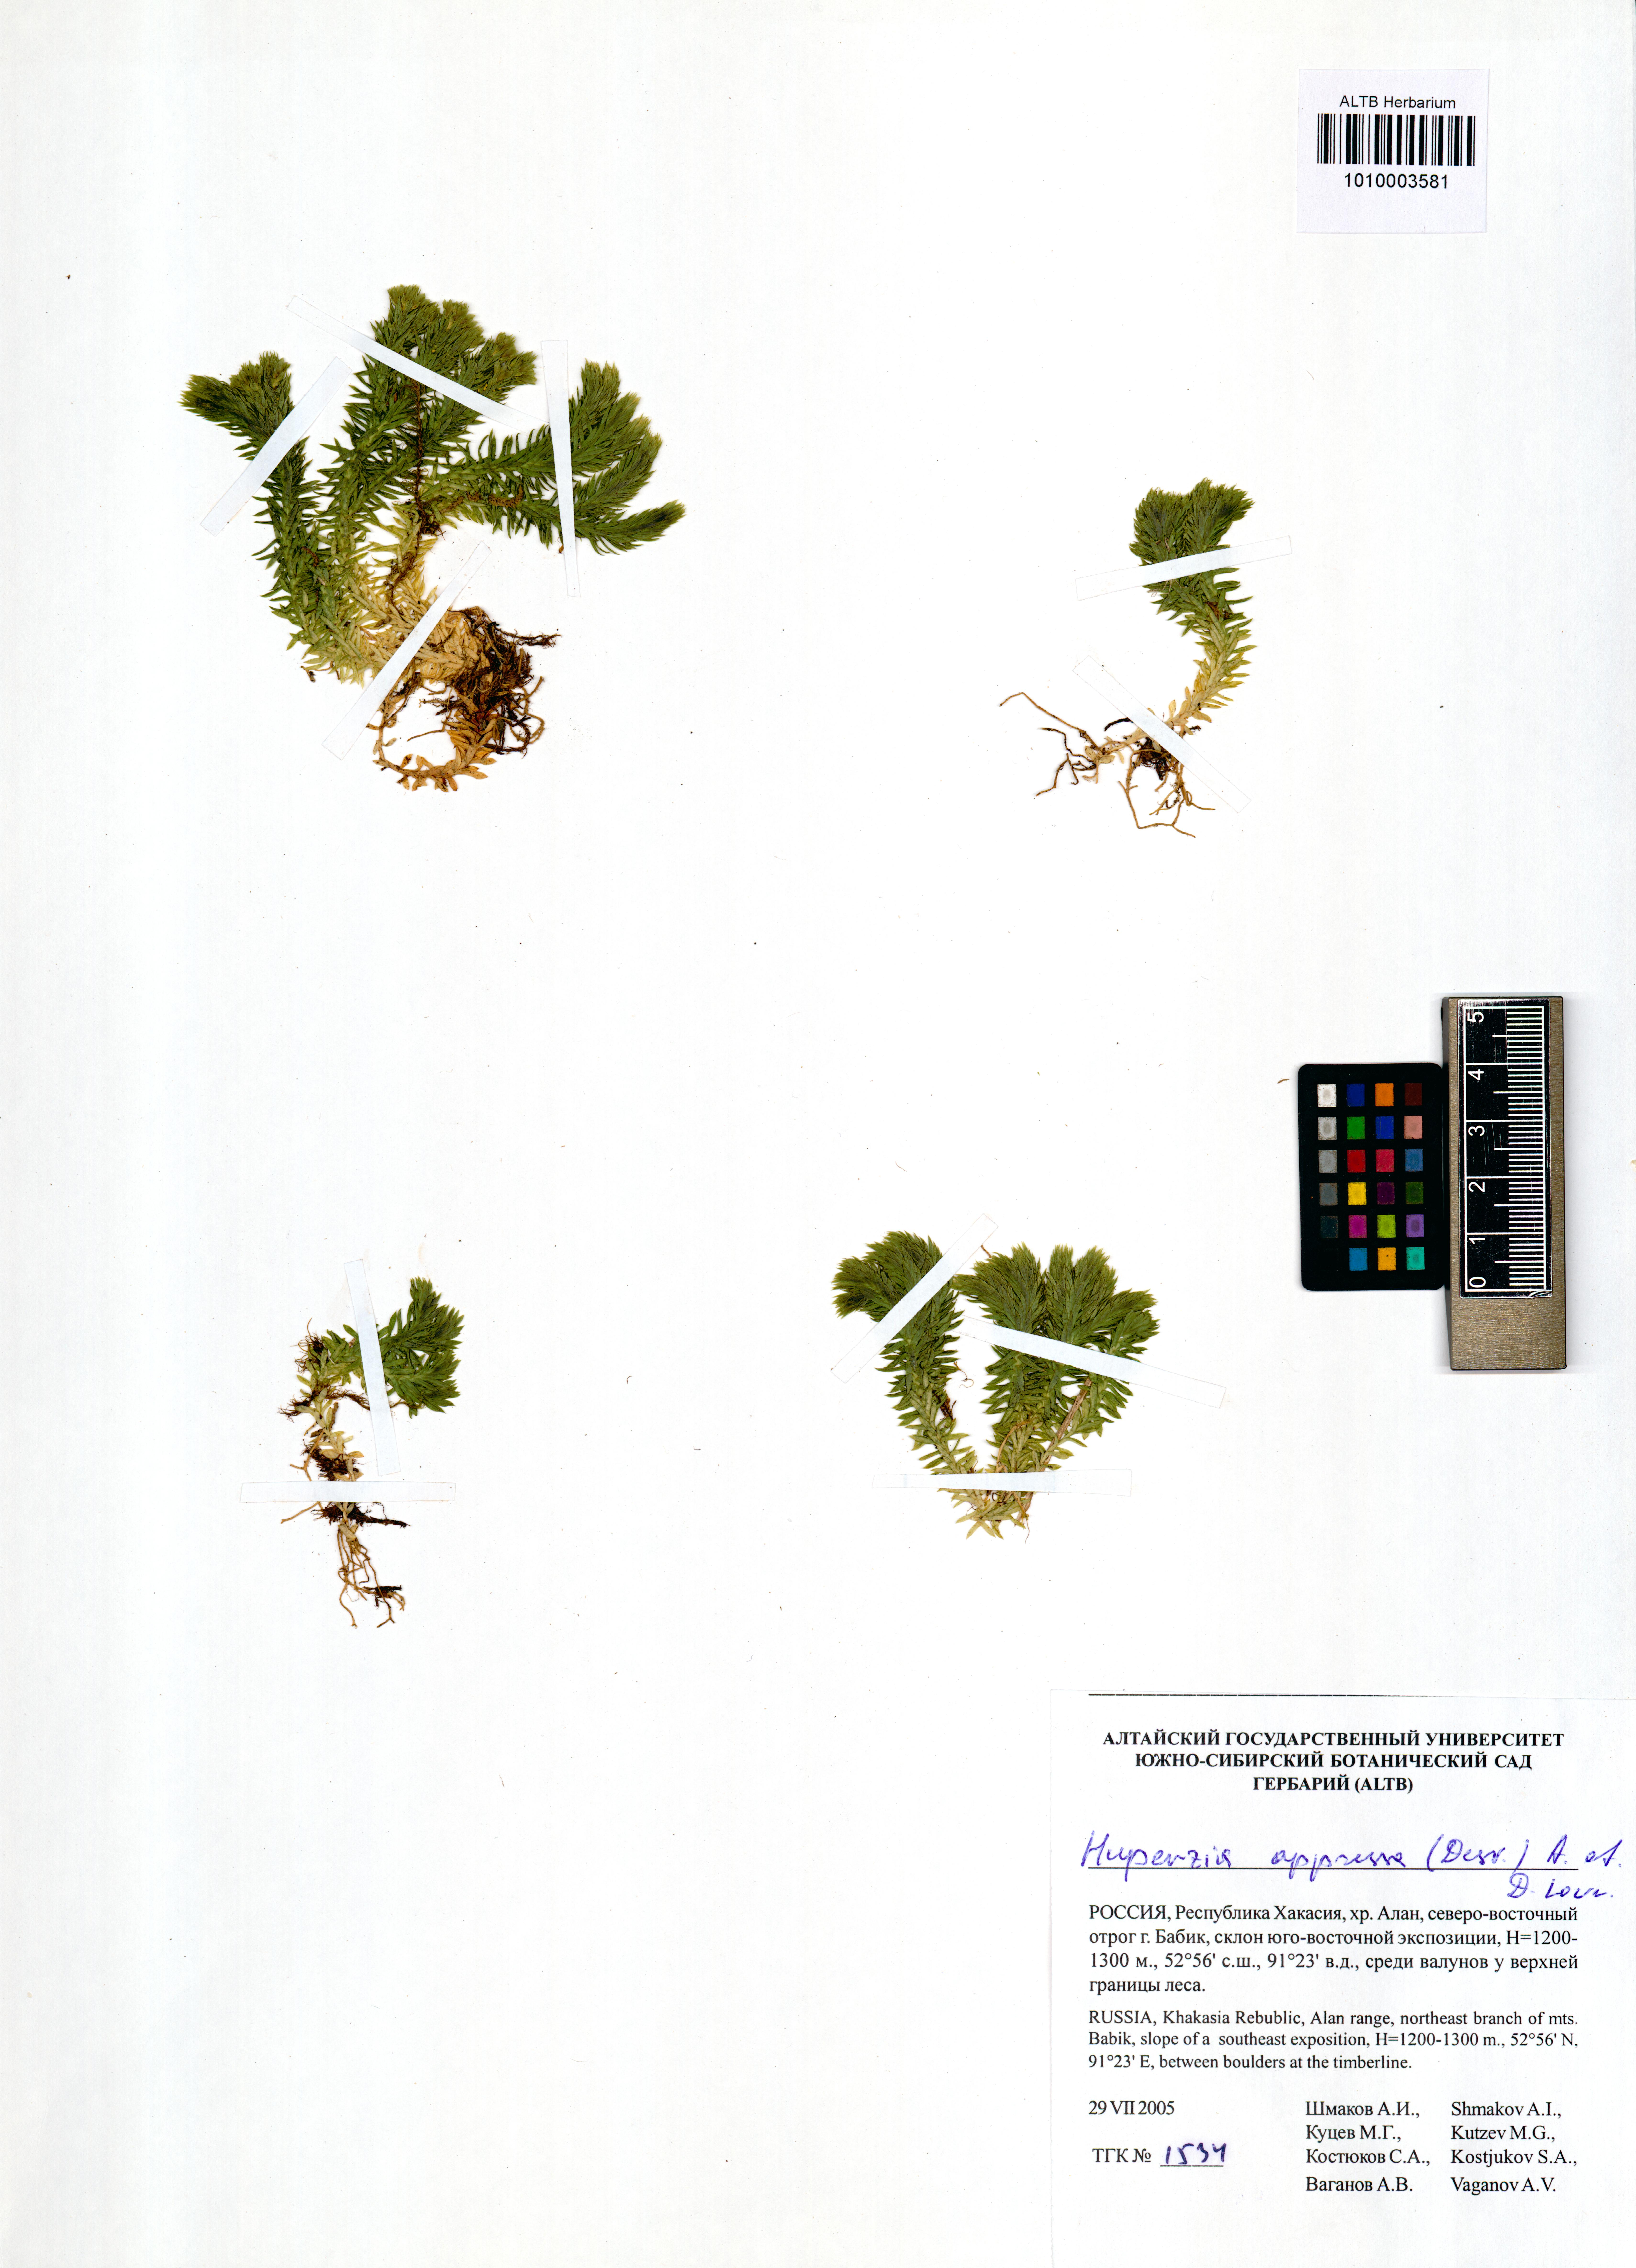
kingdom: Plantae
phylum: Tracheophyta
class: Lycopodiopsida
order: Lycopodiales
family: Lycopodiaceae
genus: Huperzia
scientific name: Huperzia selago
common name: Northern firmoss
